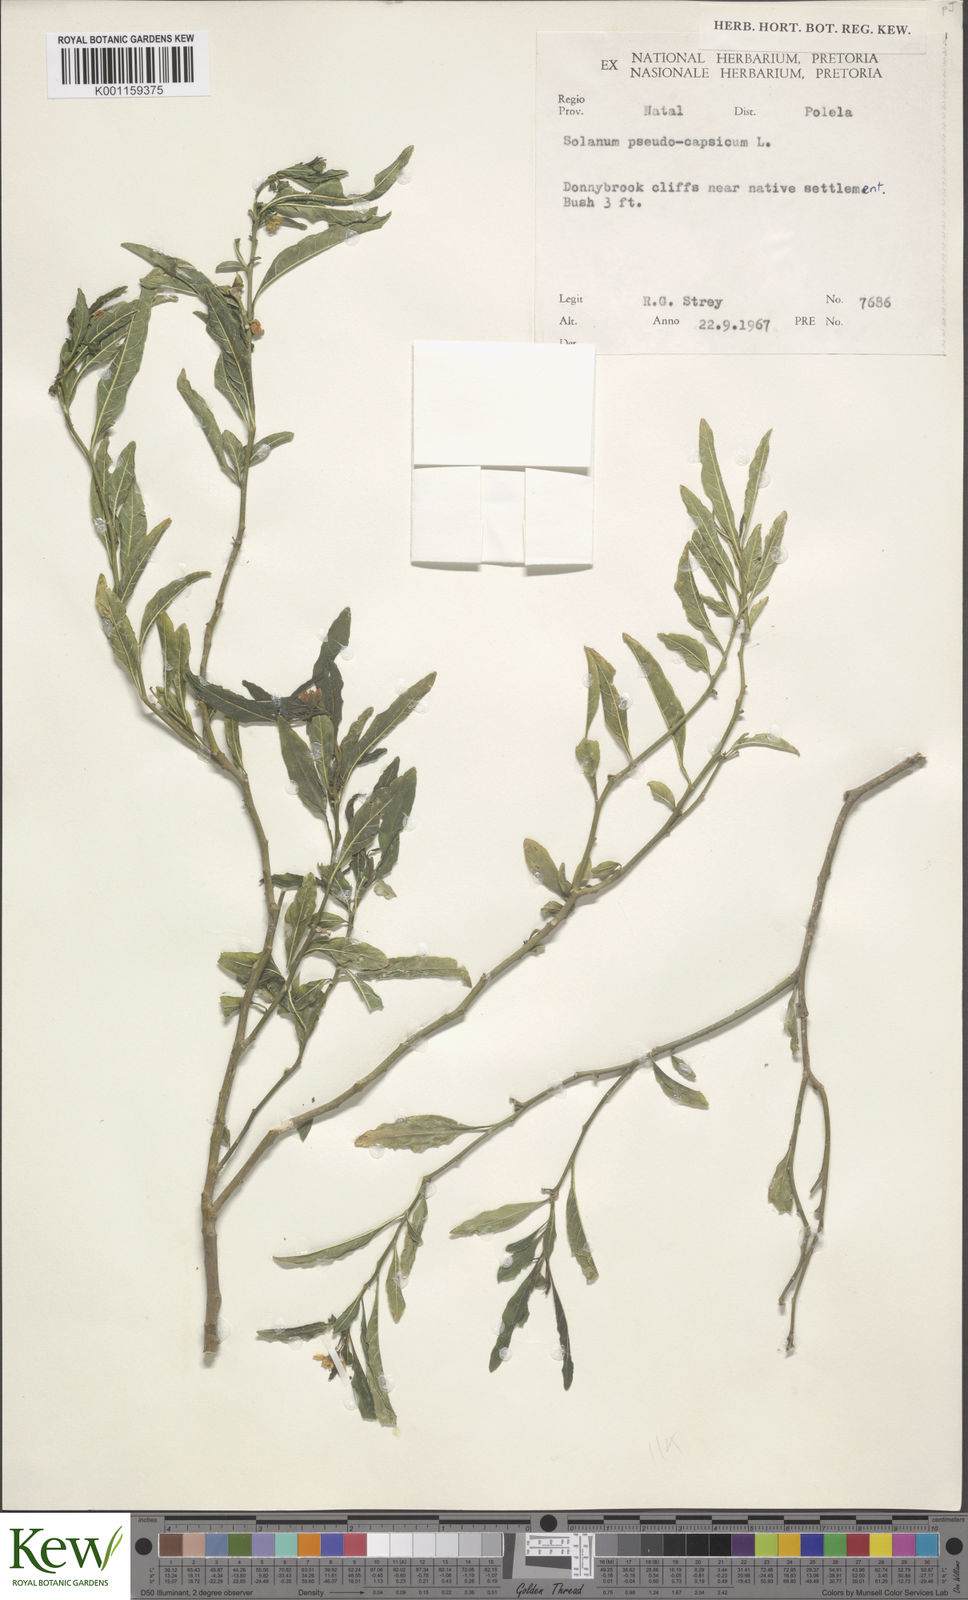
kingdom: Plantae
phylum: Tracheophyta
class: Magnoliopsida
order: Solanales
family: Solanaceae
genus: Solanum
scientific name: Solanum pseudocapsicum
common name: Jerusalem cherry
